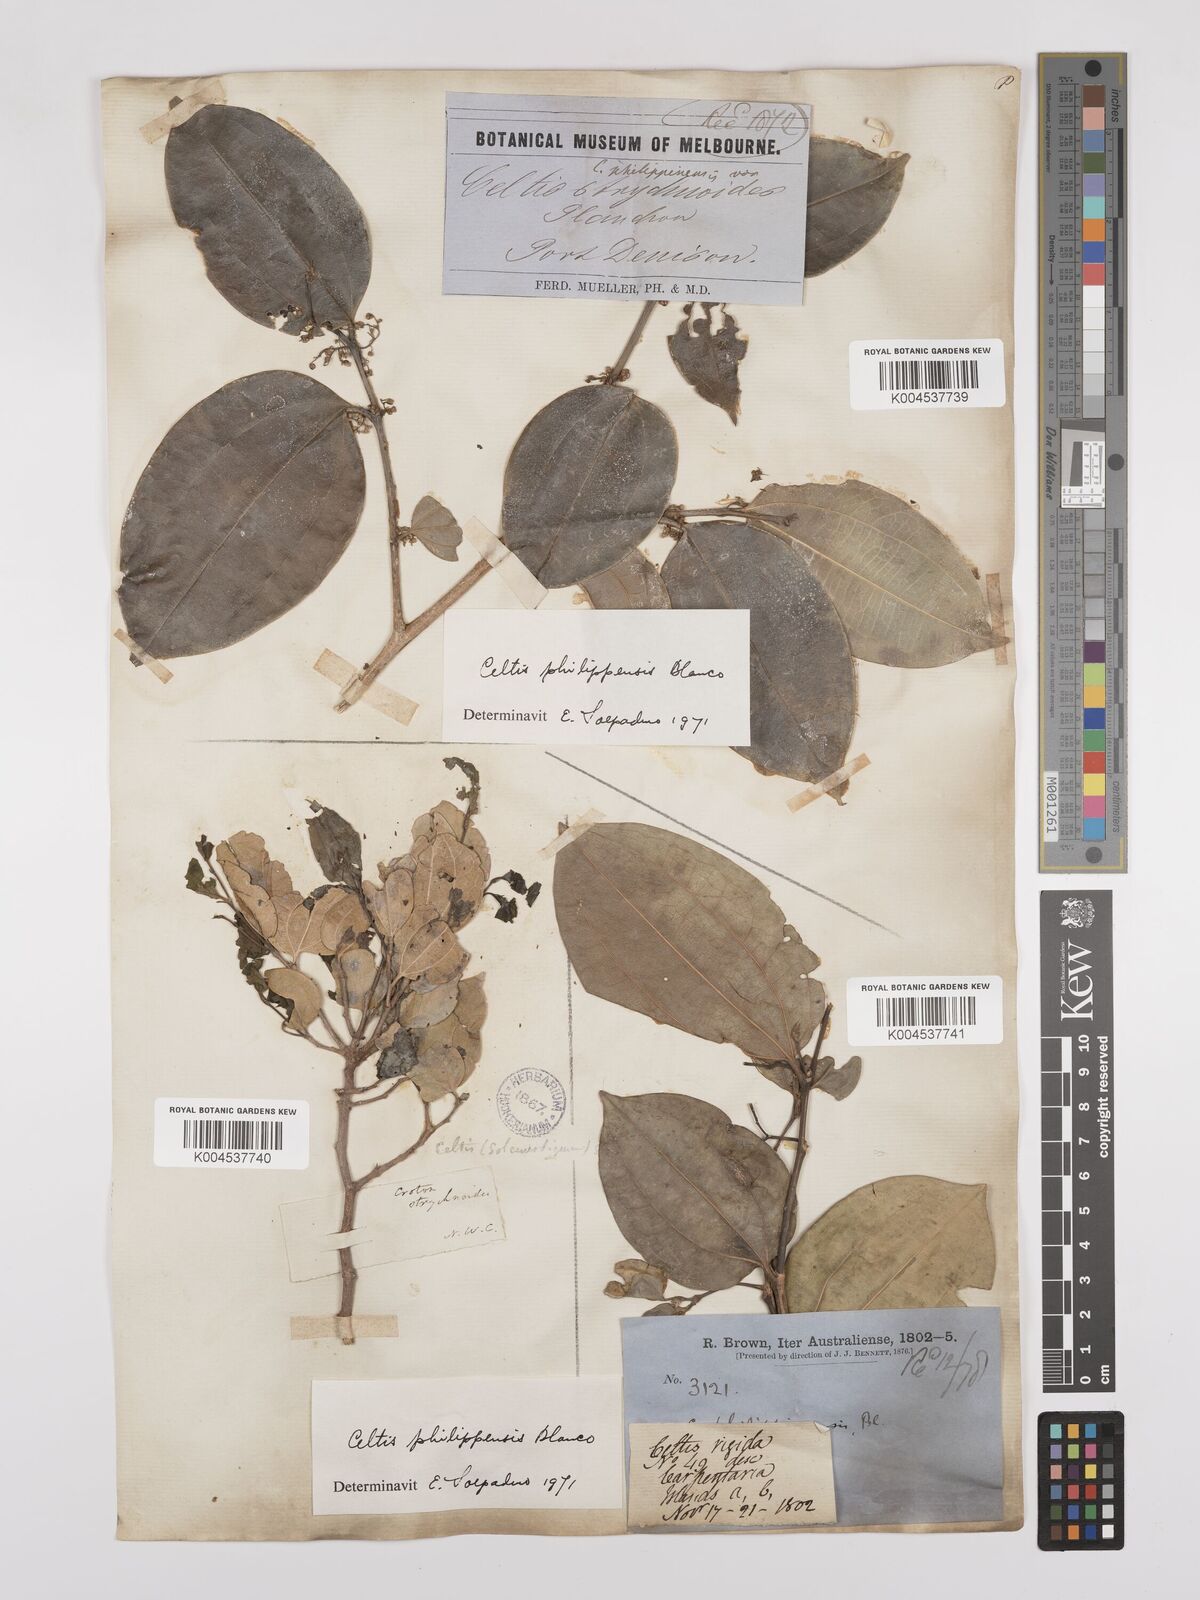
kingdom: Plantae
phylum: Tracheophyta
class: Magnoliopsida
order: Rosales
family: Cannabaceae
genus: Celtis
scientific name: Celtis philippensis
